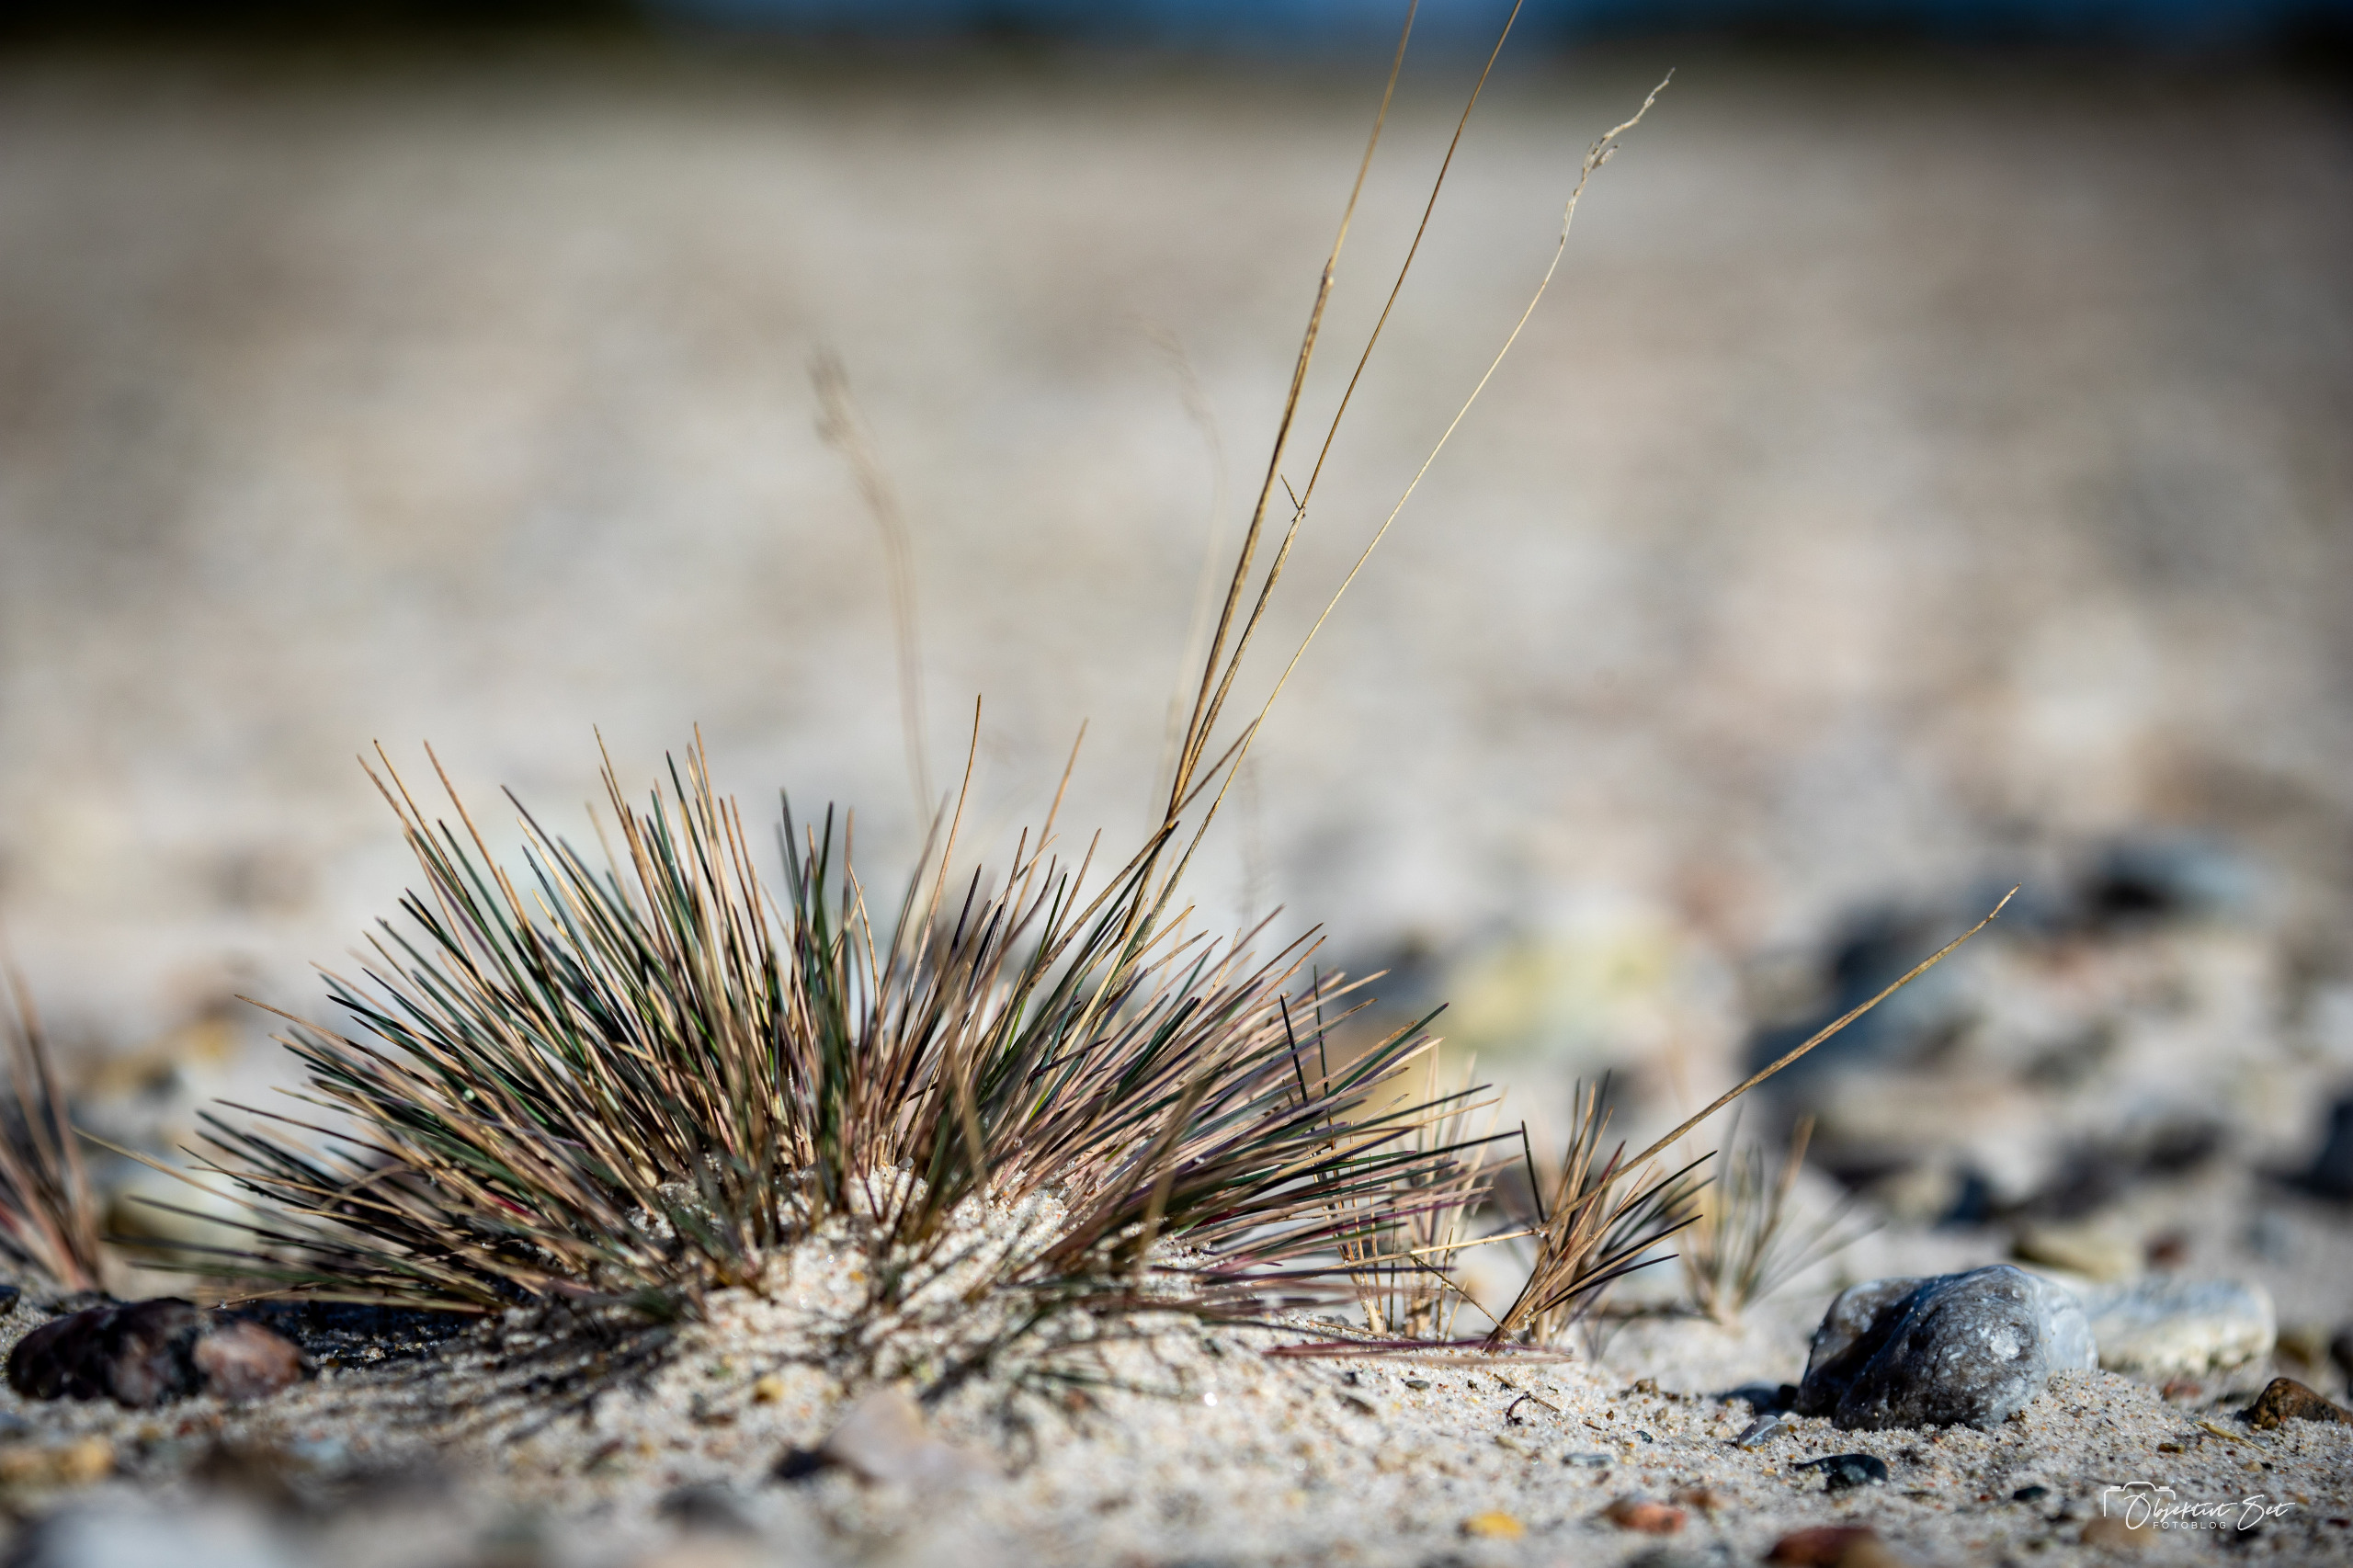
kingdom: Plantae
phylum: Tracheophyta
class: Liliopsida
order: Poales
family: Poaceae
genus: Corynephorus
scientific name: Corynephorus canescens
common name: Sandskæg
